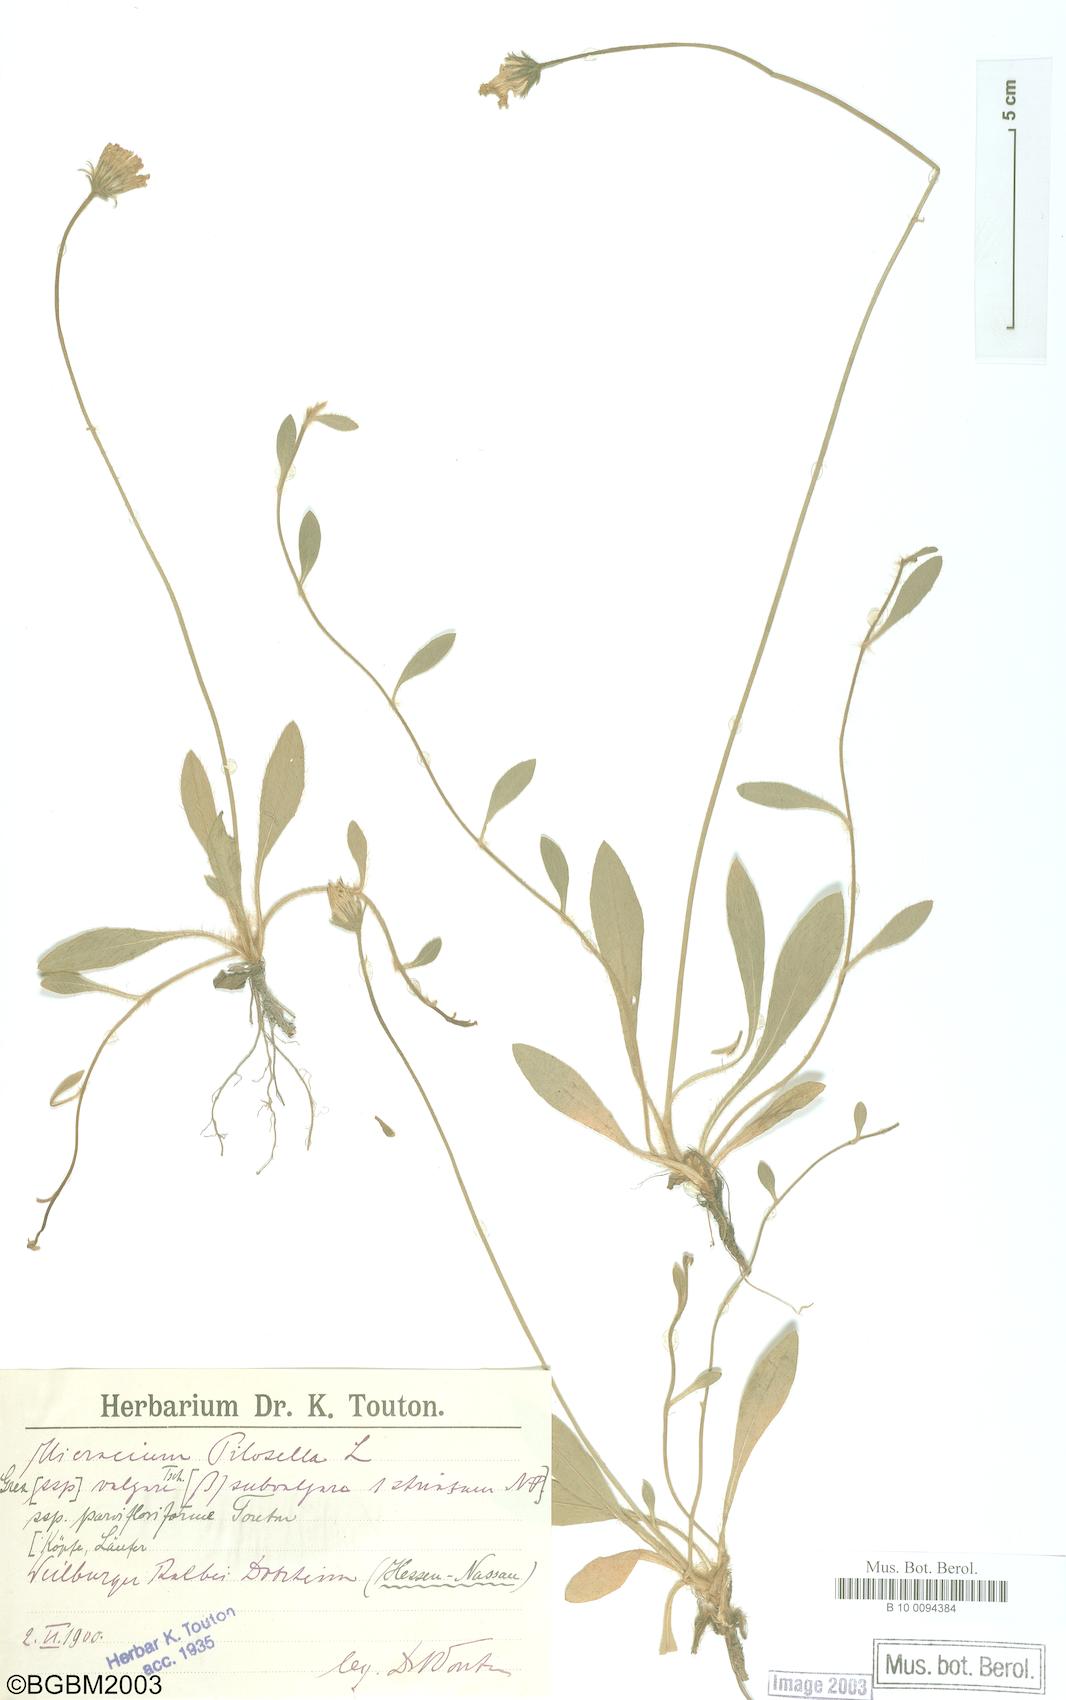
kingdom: Plantae
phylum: Tracheophyta
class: Magnoliopsida
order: Asterales
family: Asteraceae
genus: Pilosella
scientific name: Pilosella officinarum
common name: Mouse-ear hawkweed
